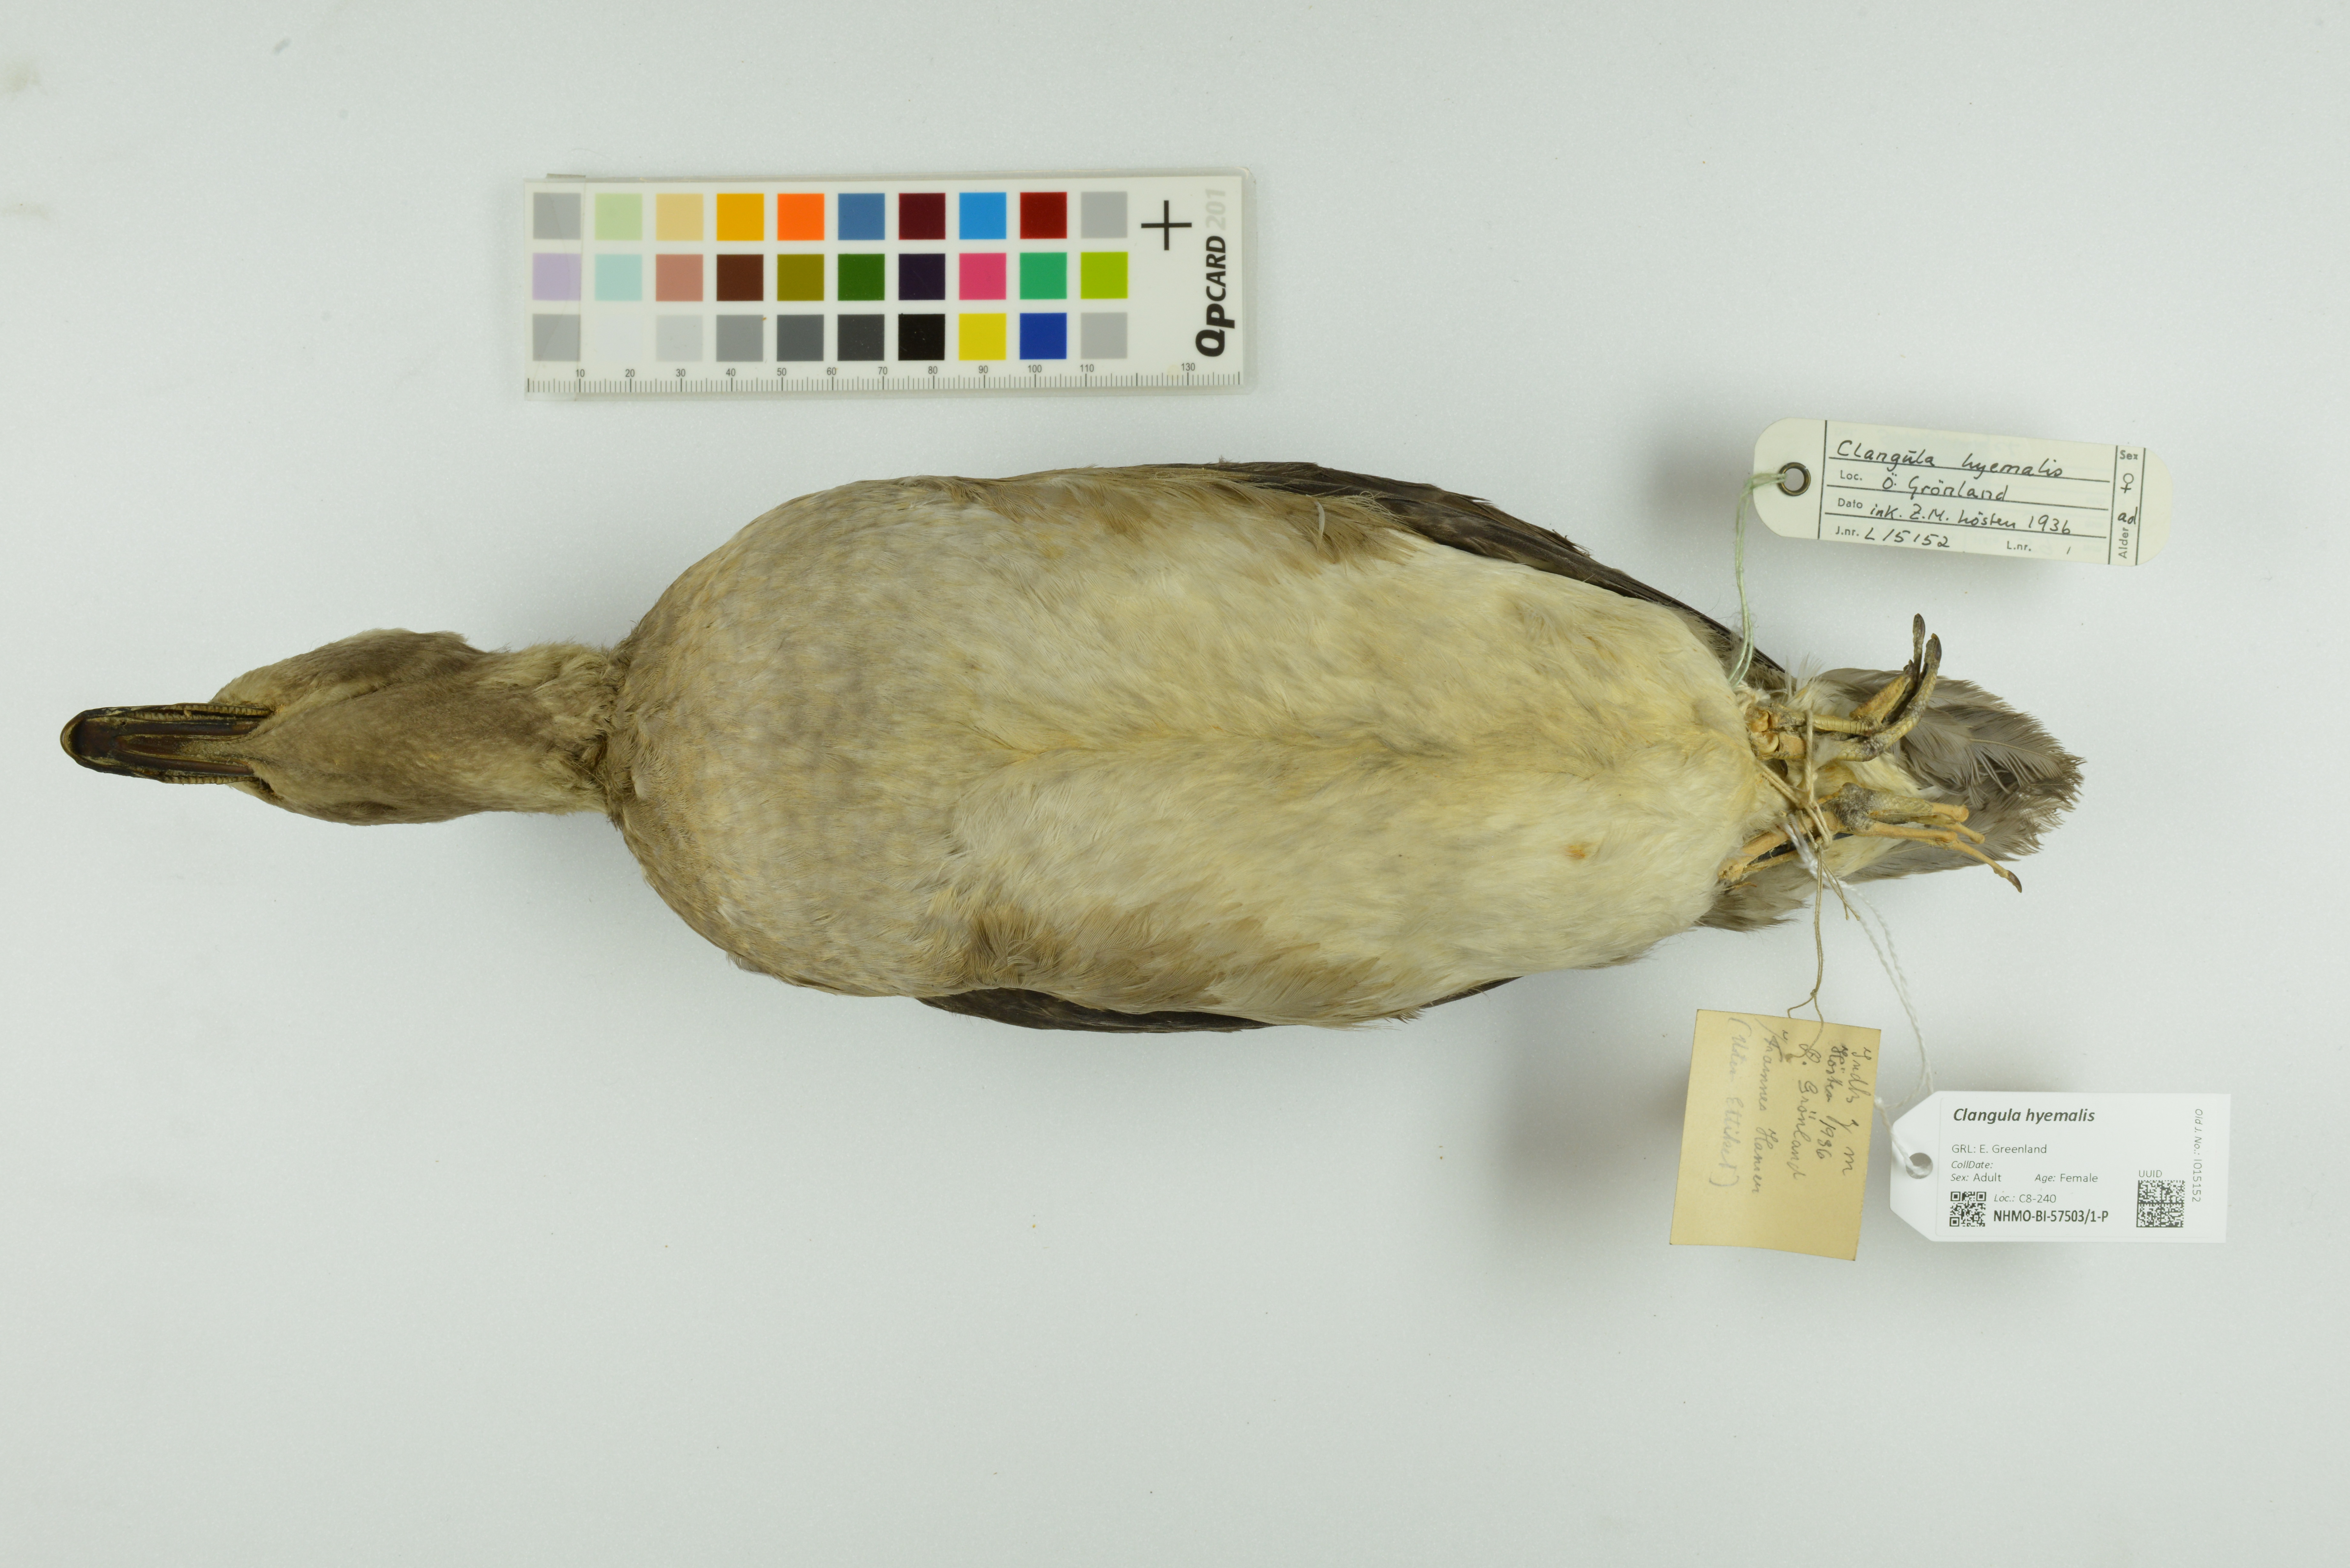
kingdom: Animalia
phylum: Chordata
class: Aves
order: Anseriformes
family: Anatidae
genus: Clangula
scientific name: Clangula hyemalis
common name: Long-tailed duck
